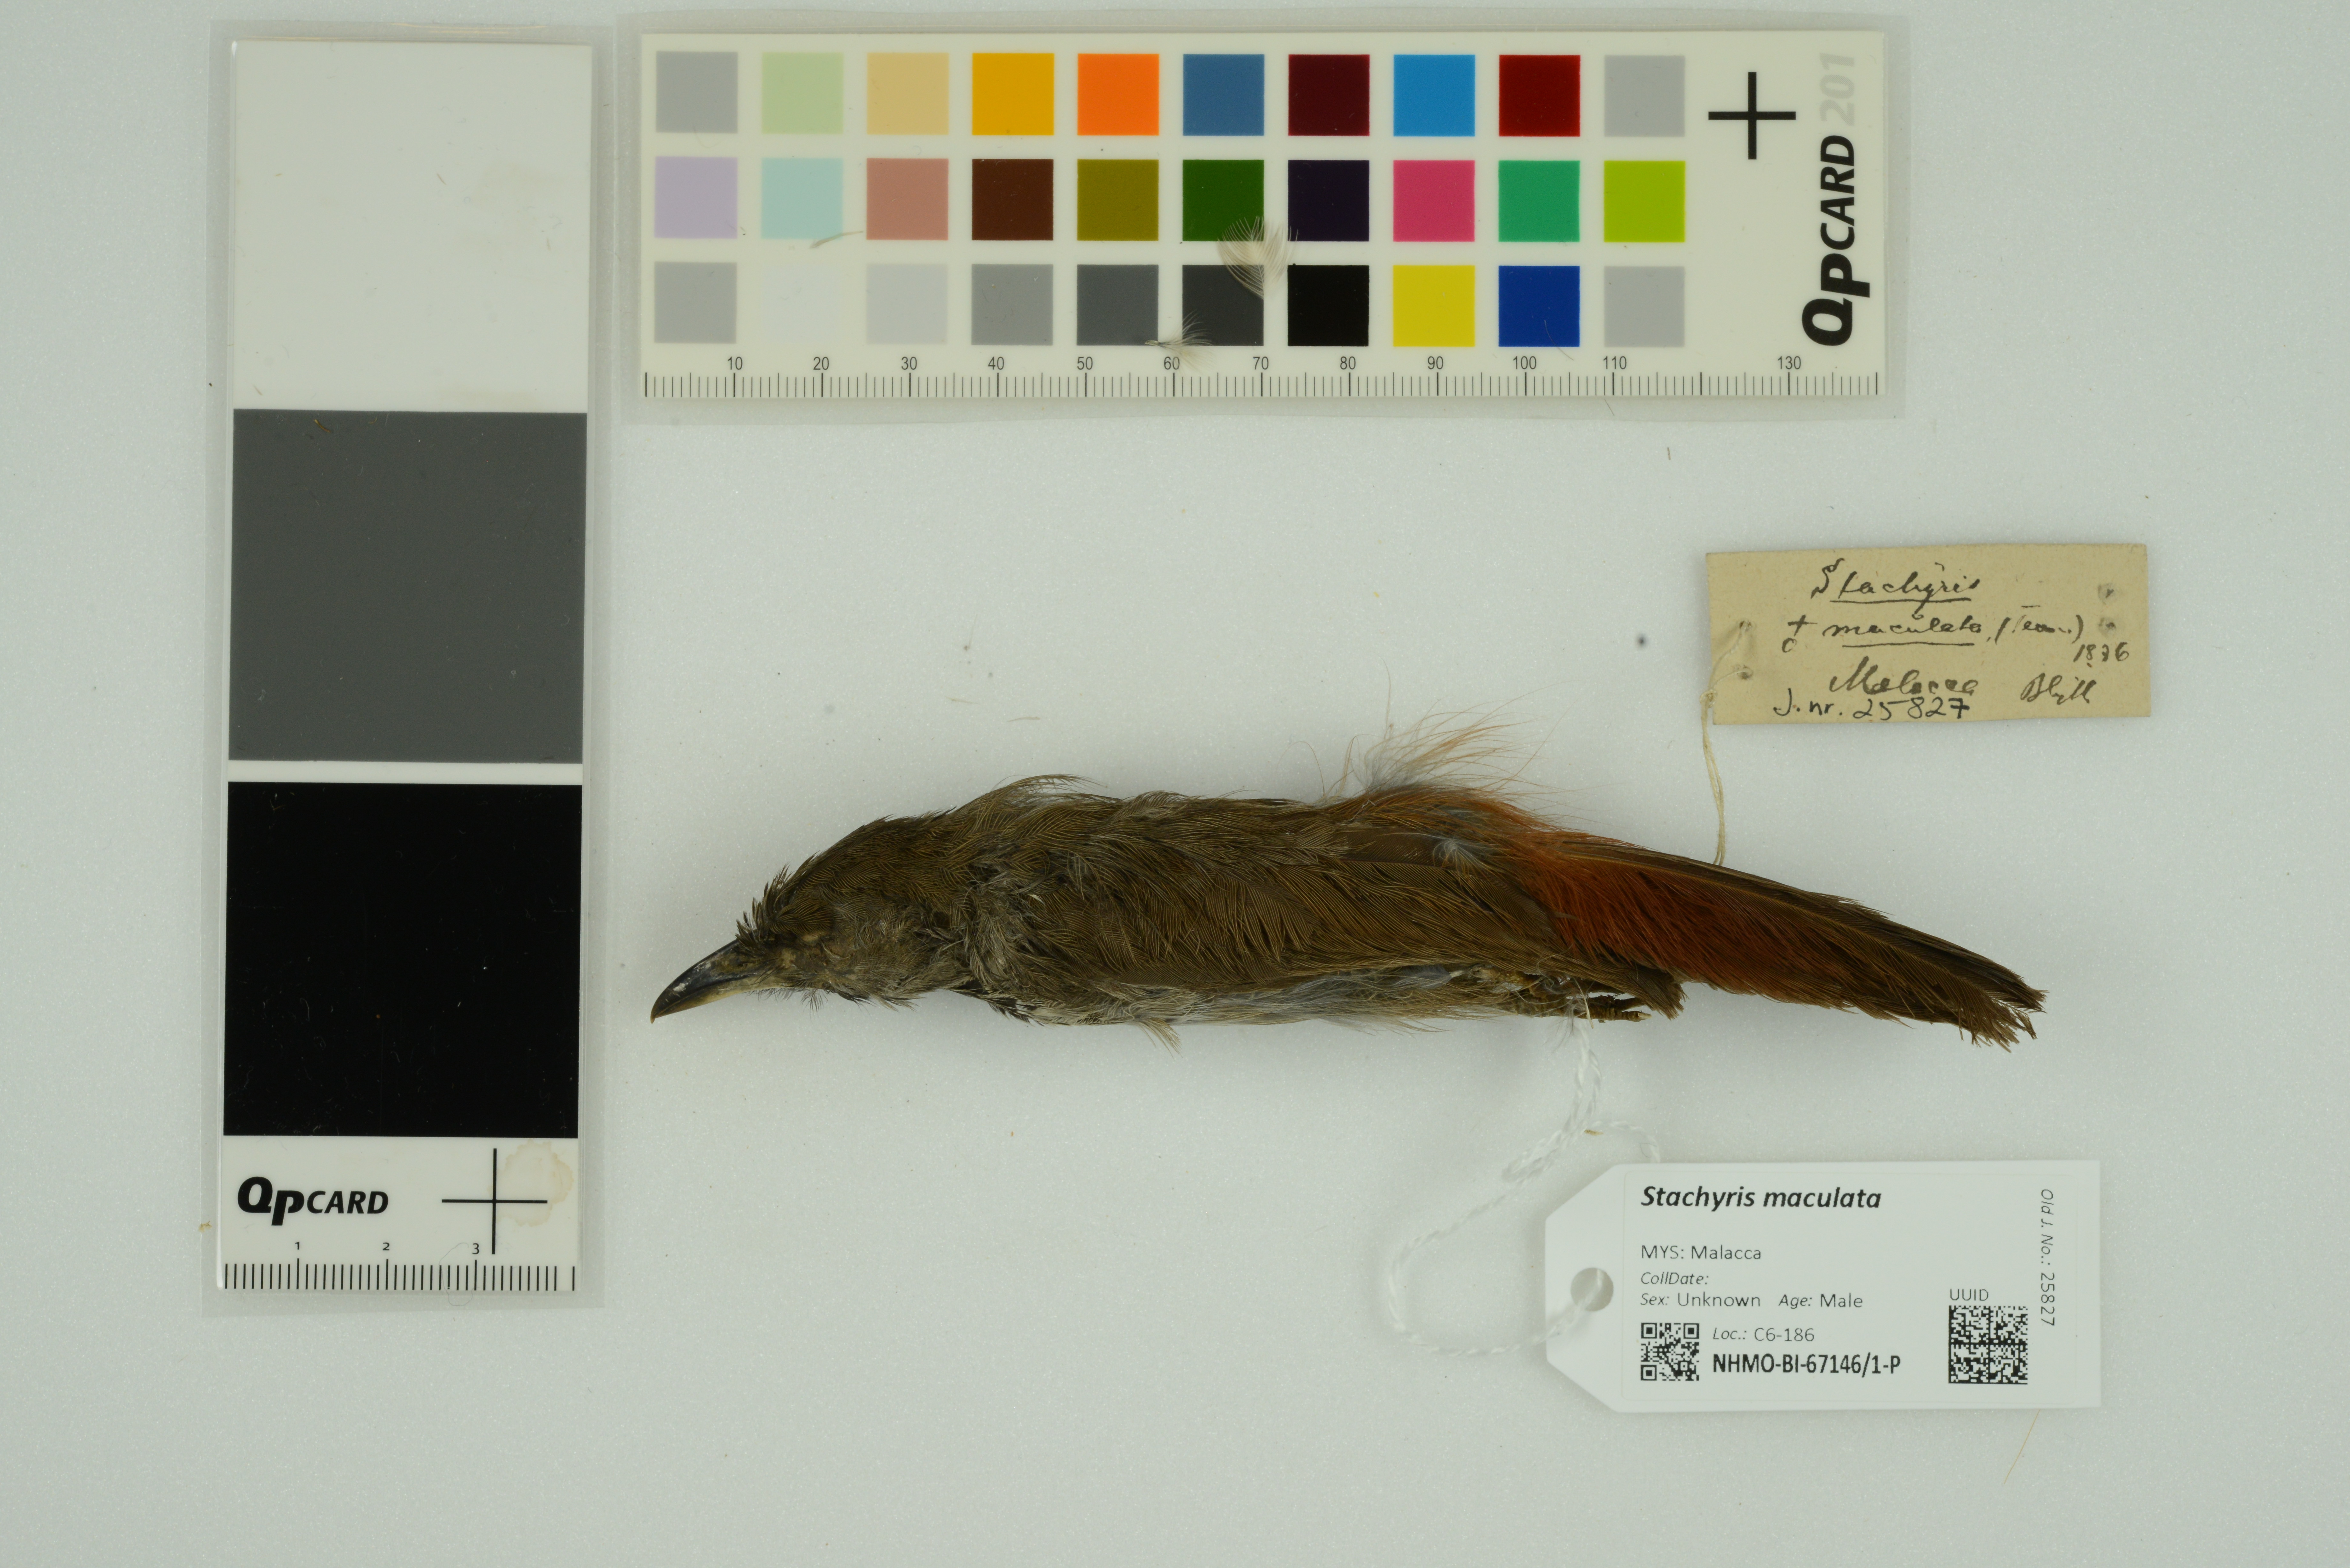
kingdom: Animalia
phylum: Chordata
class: Aves
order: Passeriformes
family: Timaliidae
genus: Stachyris
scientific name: Stachyris maculata
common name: Chestnut-rumped babbler
